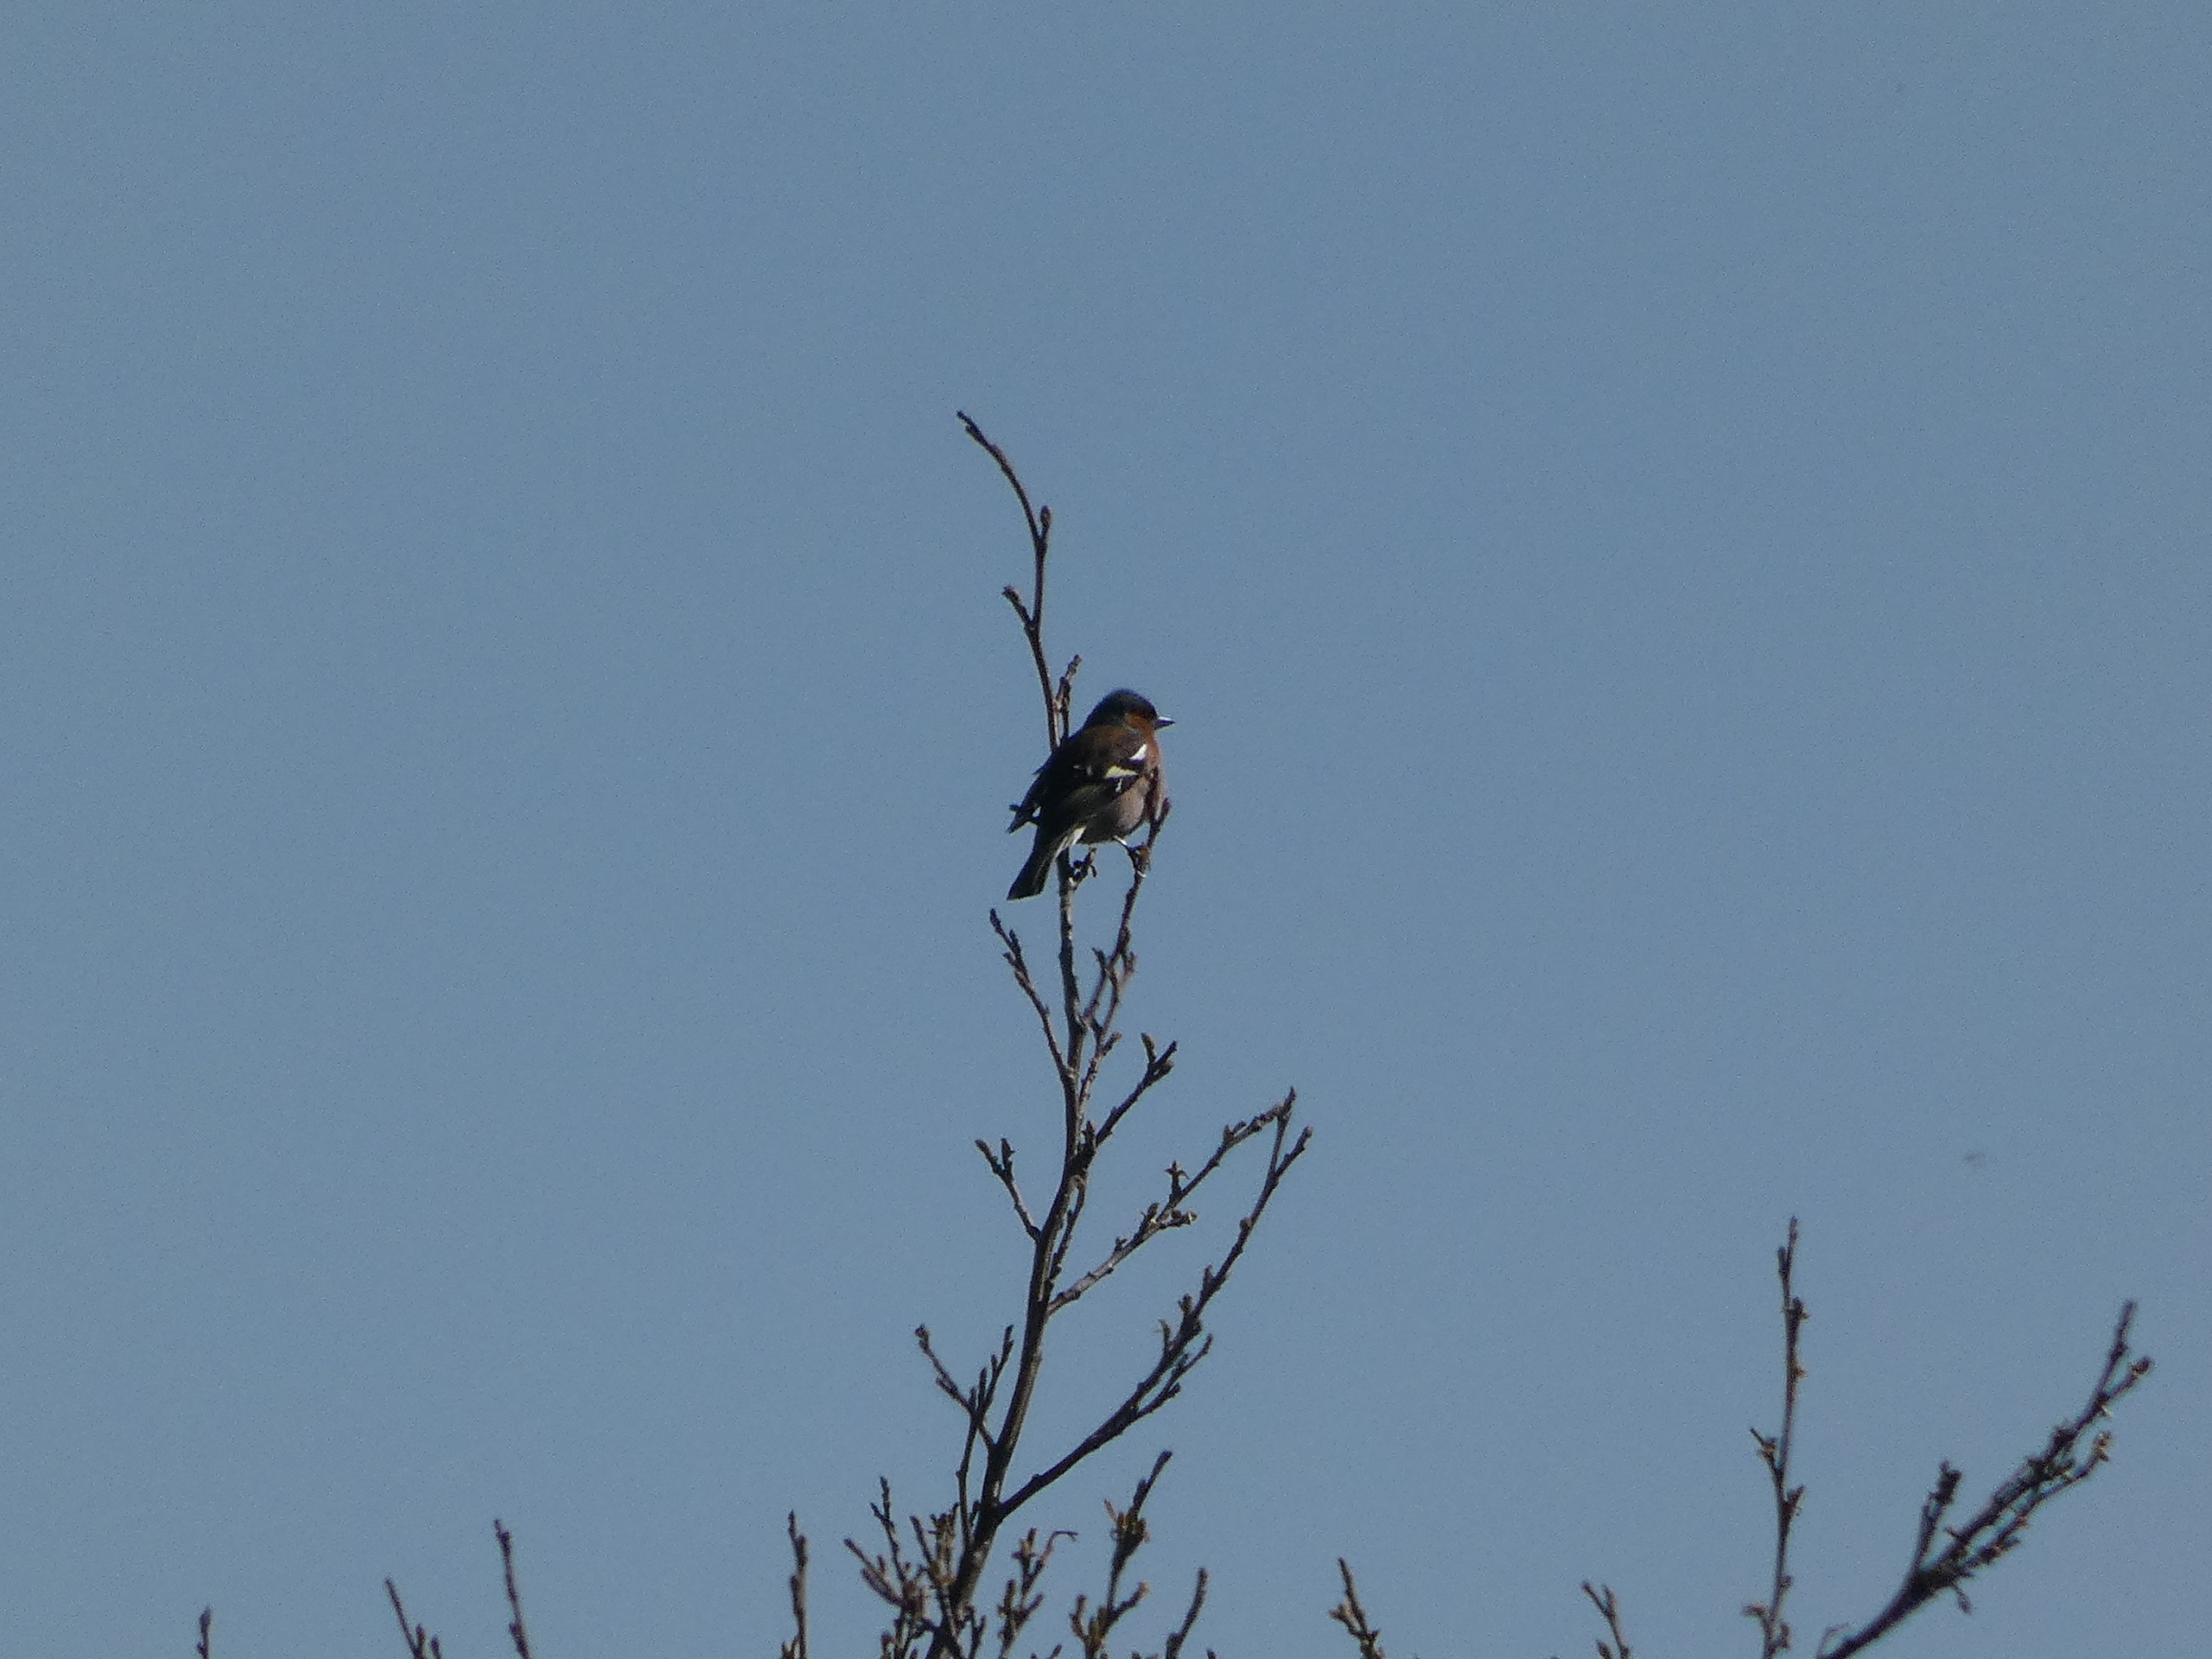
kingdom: Animalia
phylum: Chordata
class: Aves
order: Passeriformes
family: Fringillidae
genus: Fringilla
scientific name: Fringilla coelebs
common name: Bogfinke
